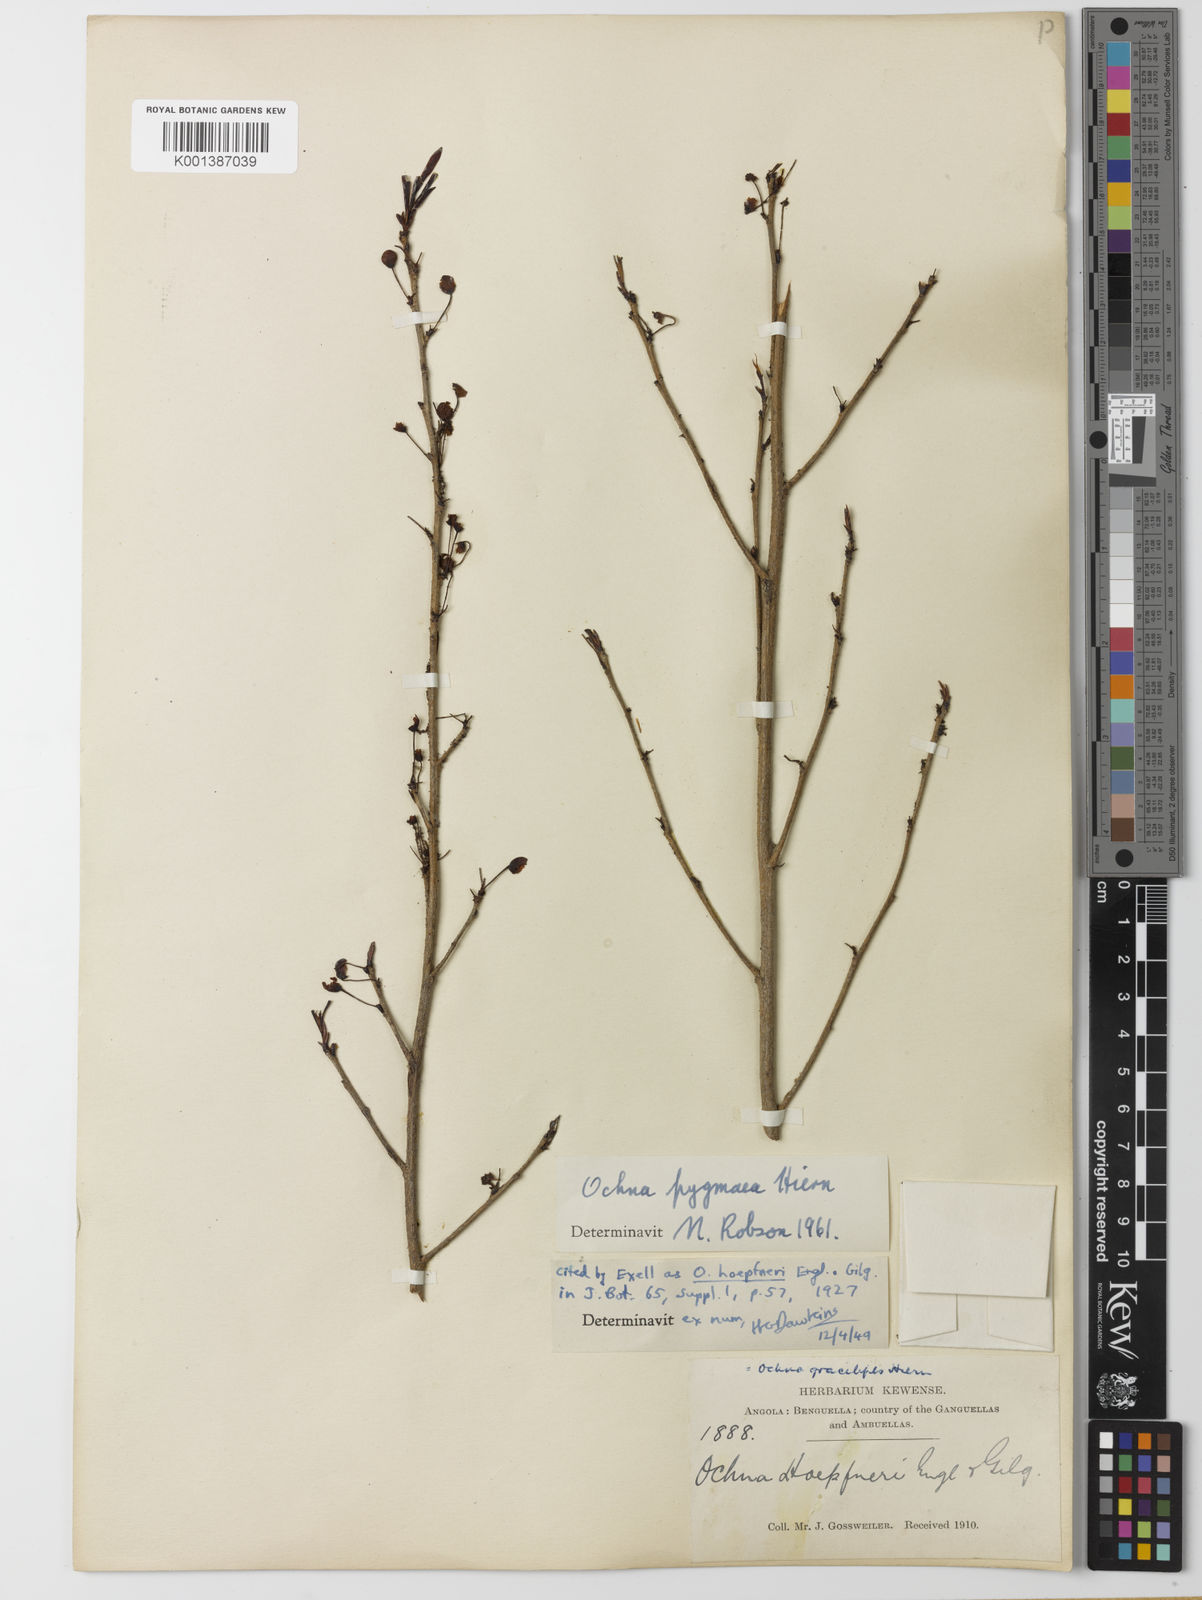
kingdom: Plantae
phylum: Tracheophyta
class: Magnoliopsida
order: Malpighiales
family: Ochnaceae
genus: Ochna
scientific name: Ochna pygmaea
